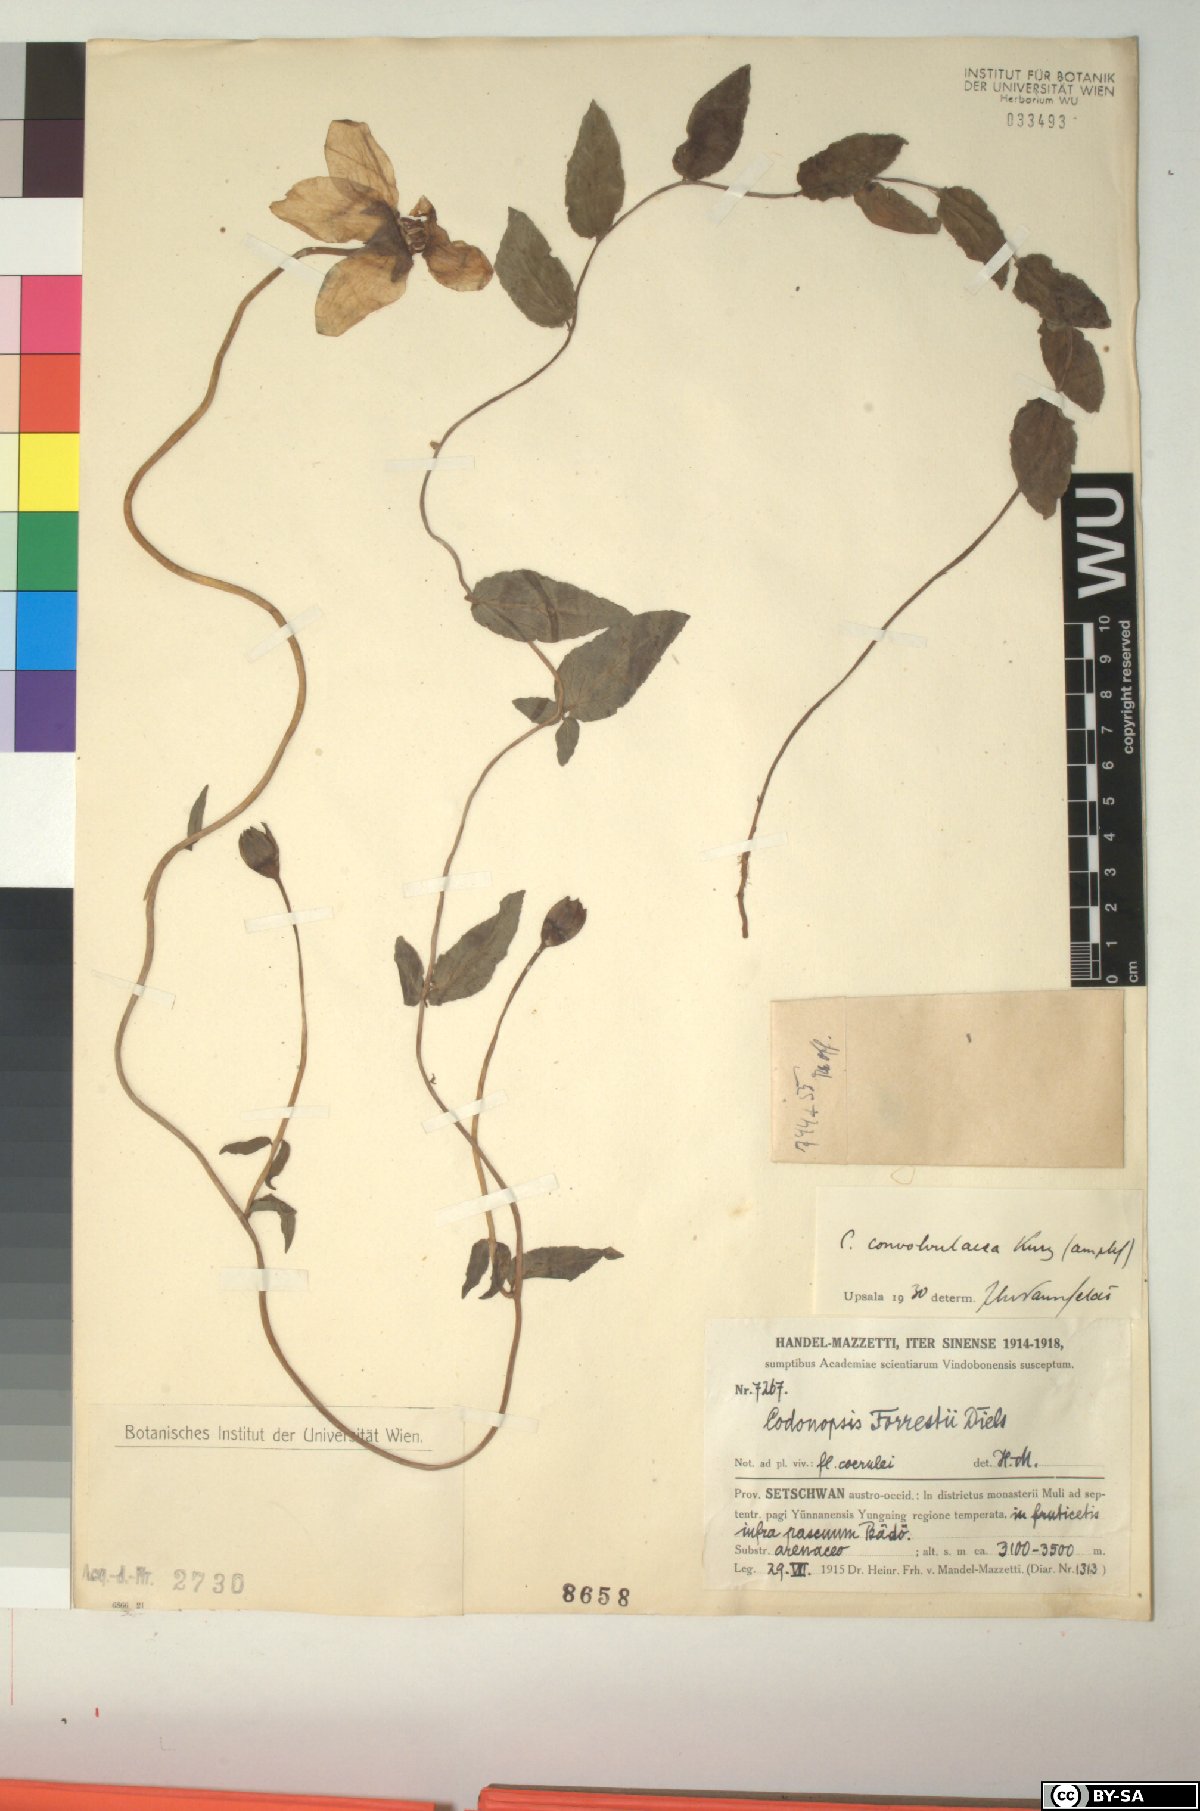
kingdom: Plantae
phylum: Tracheophyta
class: Magnoliopsida
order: Asterales
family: Campanulaceae
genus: Pseudocodon
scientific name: Pseudocodon convolvulaceus
